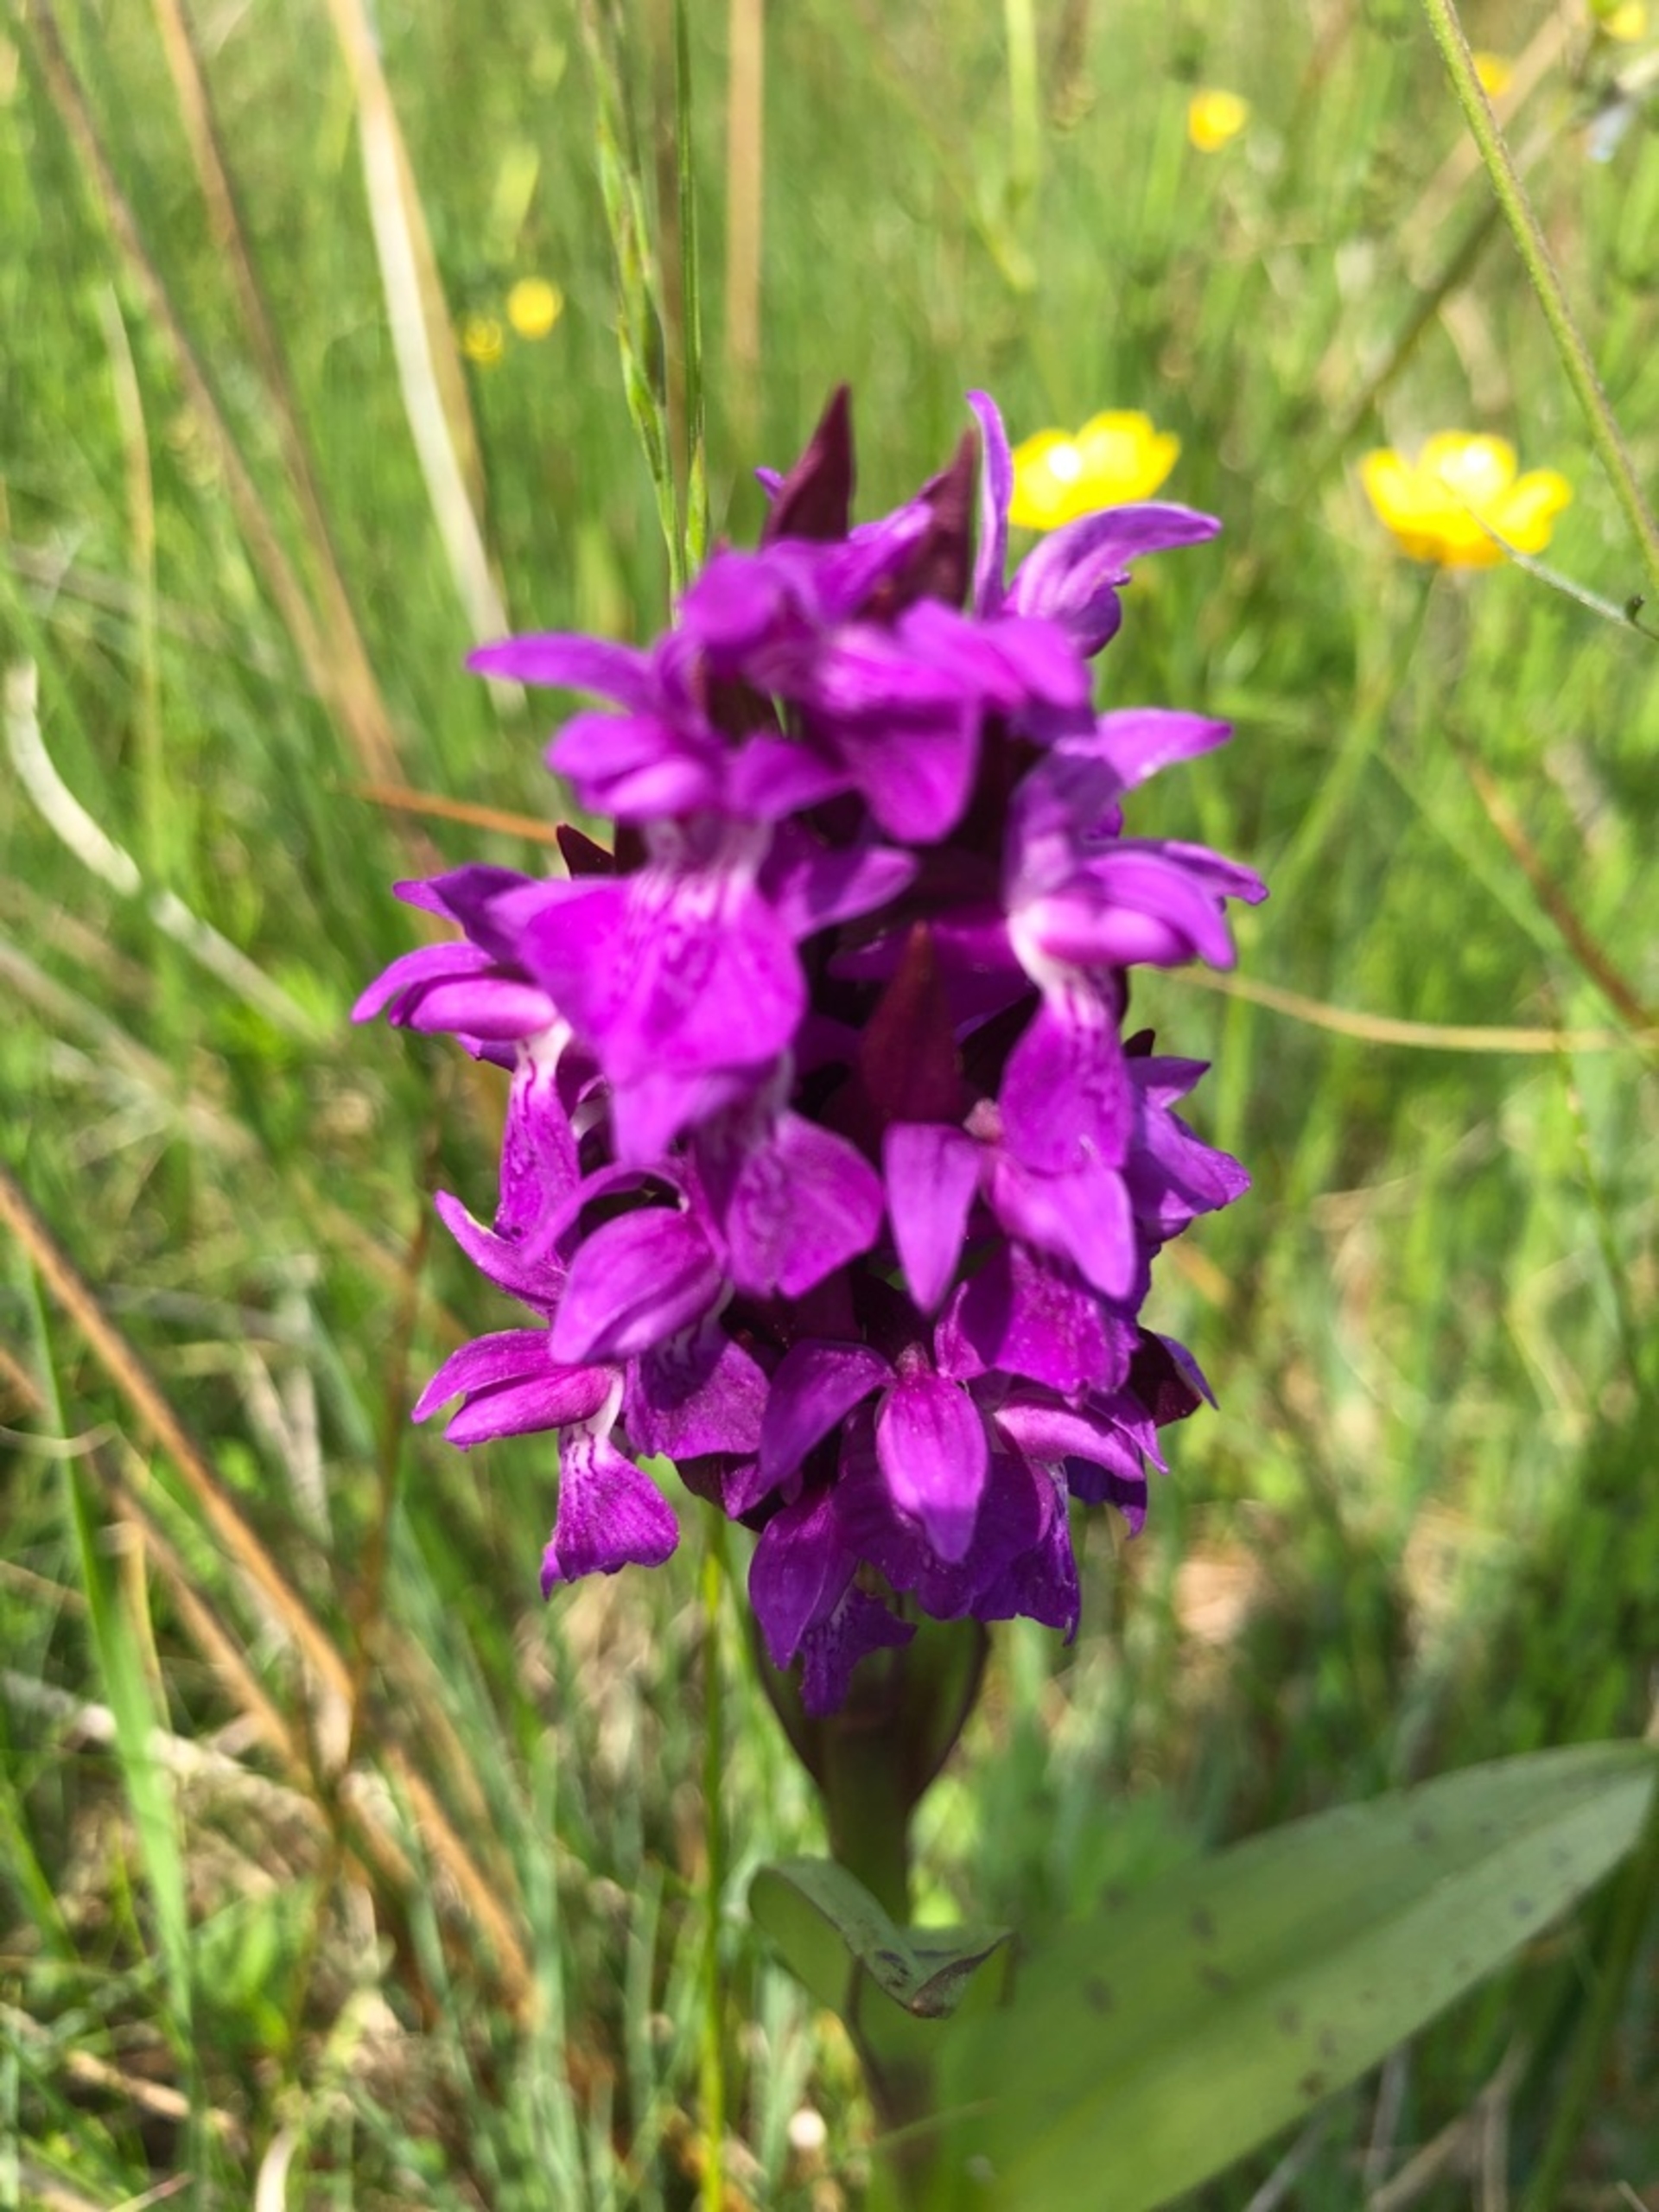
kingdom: Plantae
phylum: Tracheophyta
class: Liliopsida
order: Asparagales
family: Orchidaceae
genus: Dactylorhiza
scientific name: Dactylorhiza majalis
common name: Maj-gøgeurt
